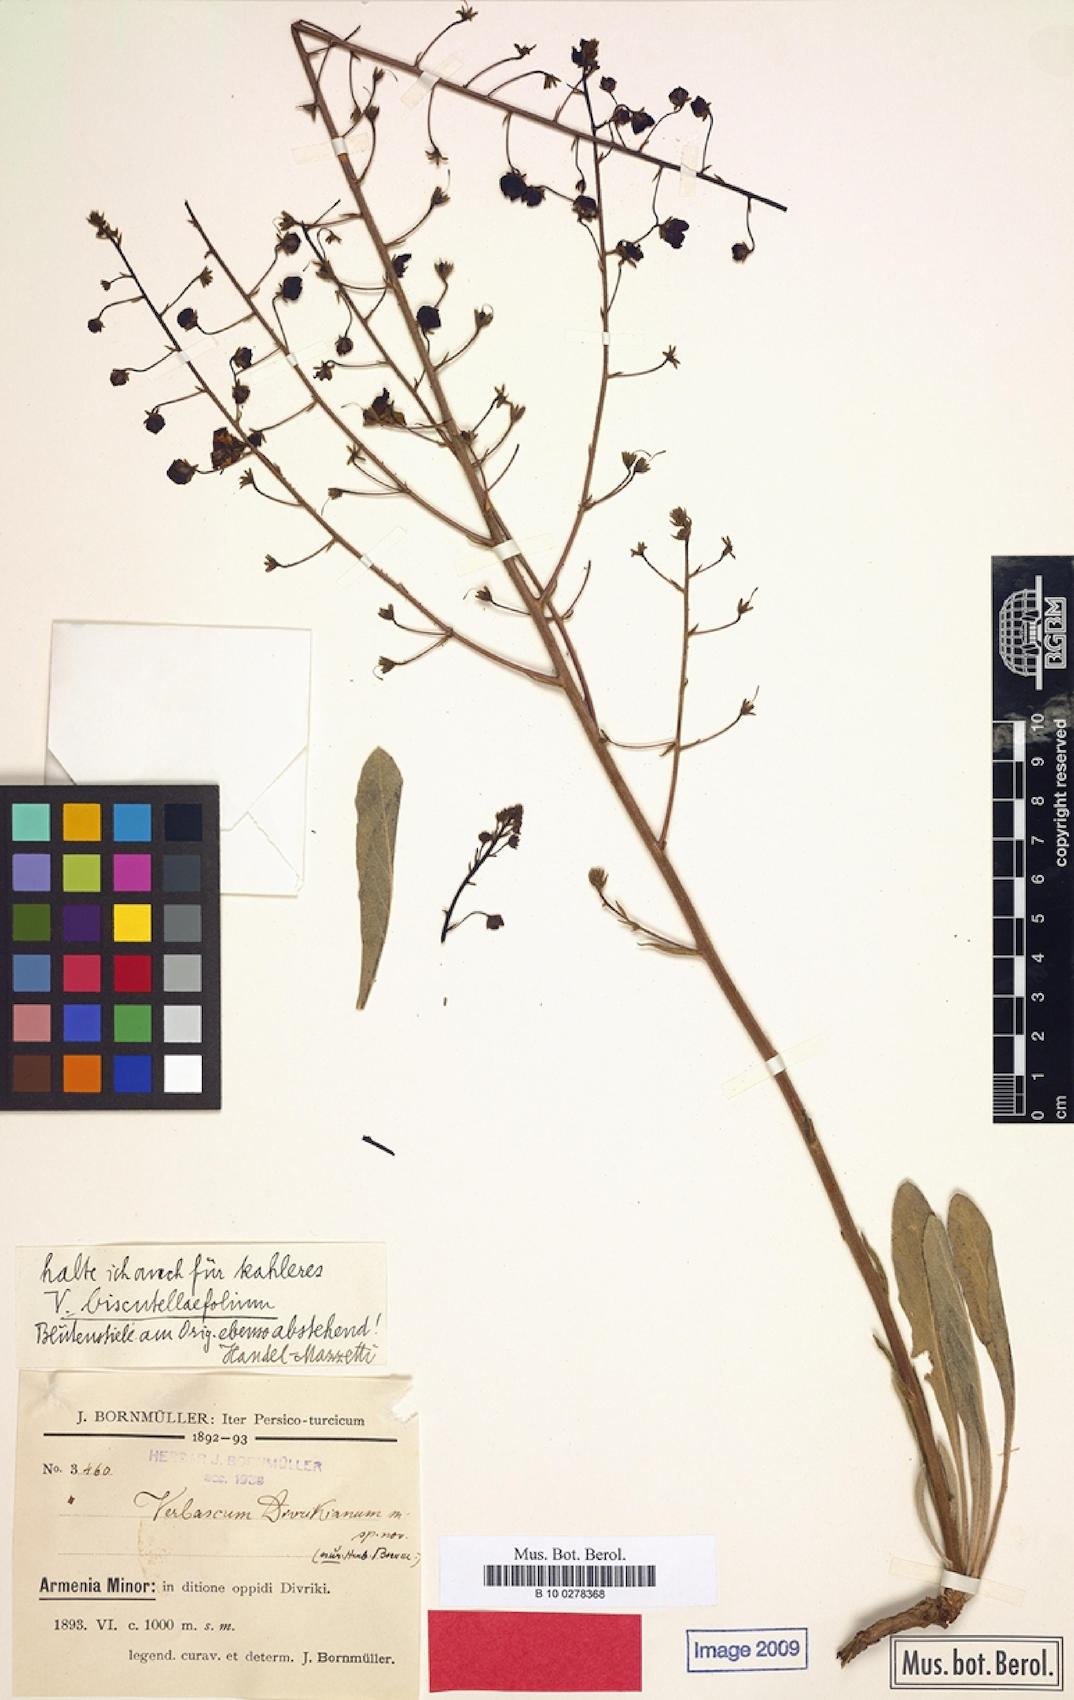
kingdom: Plantae
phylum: Tracheophyta
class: Magnoliopsida
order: Lamiales
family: Scrophulariaceae
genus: Verbascum
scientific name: Verbascum biscutellifolium
